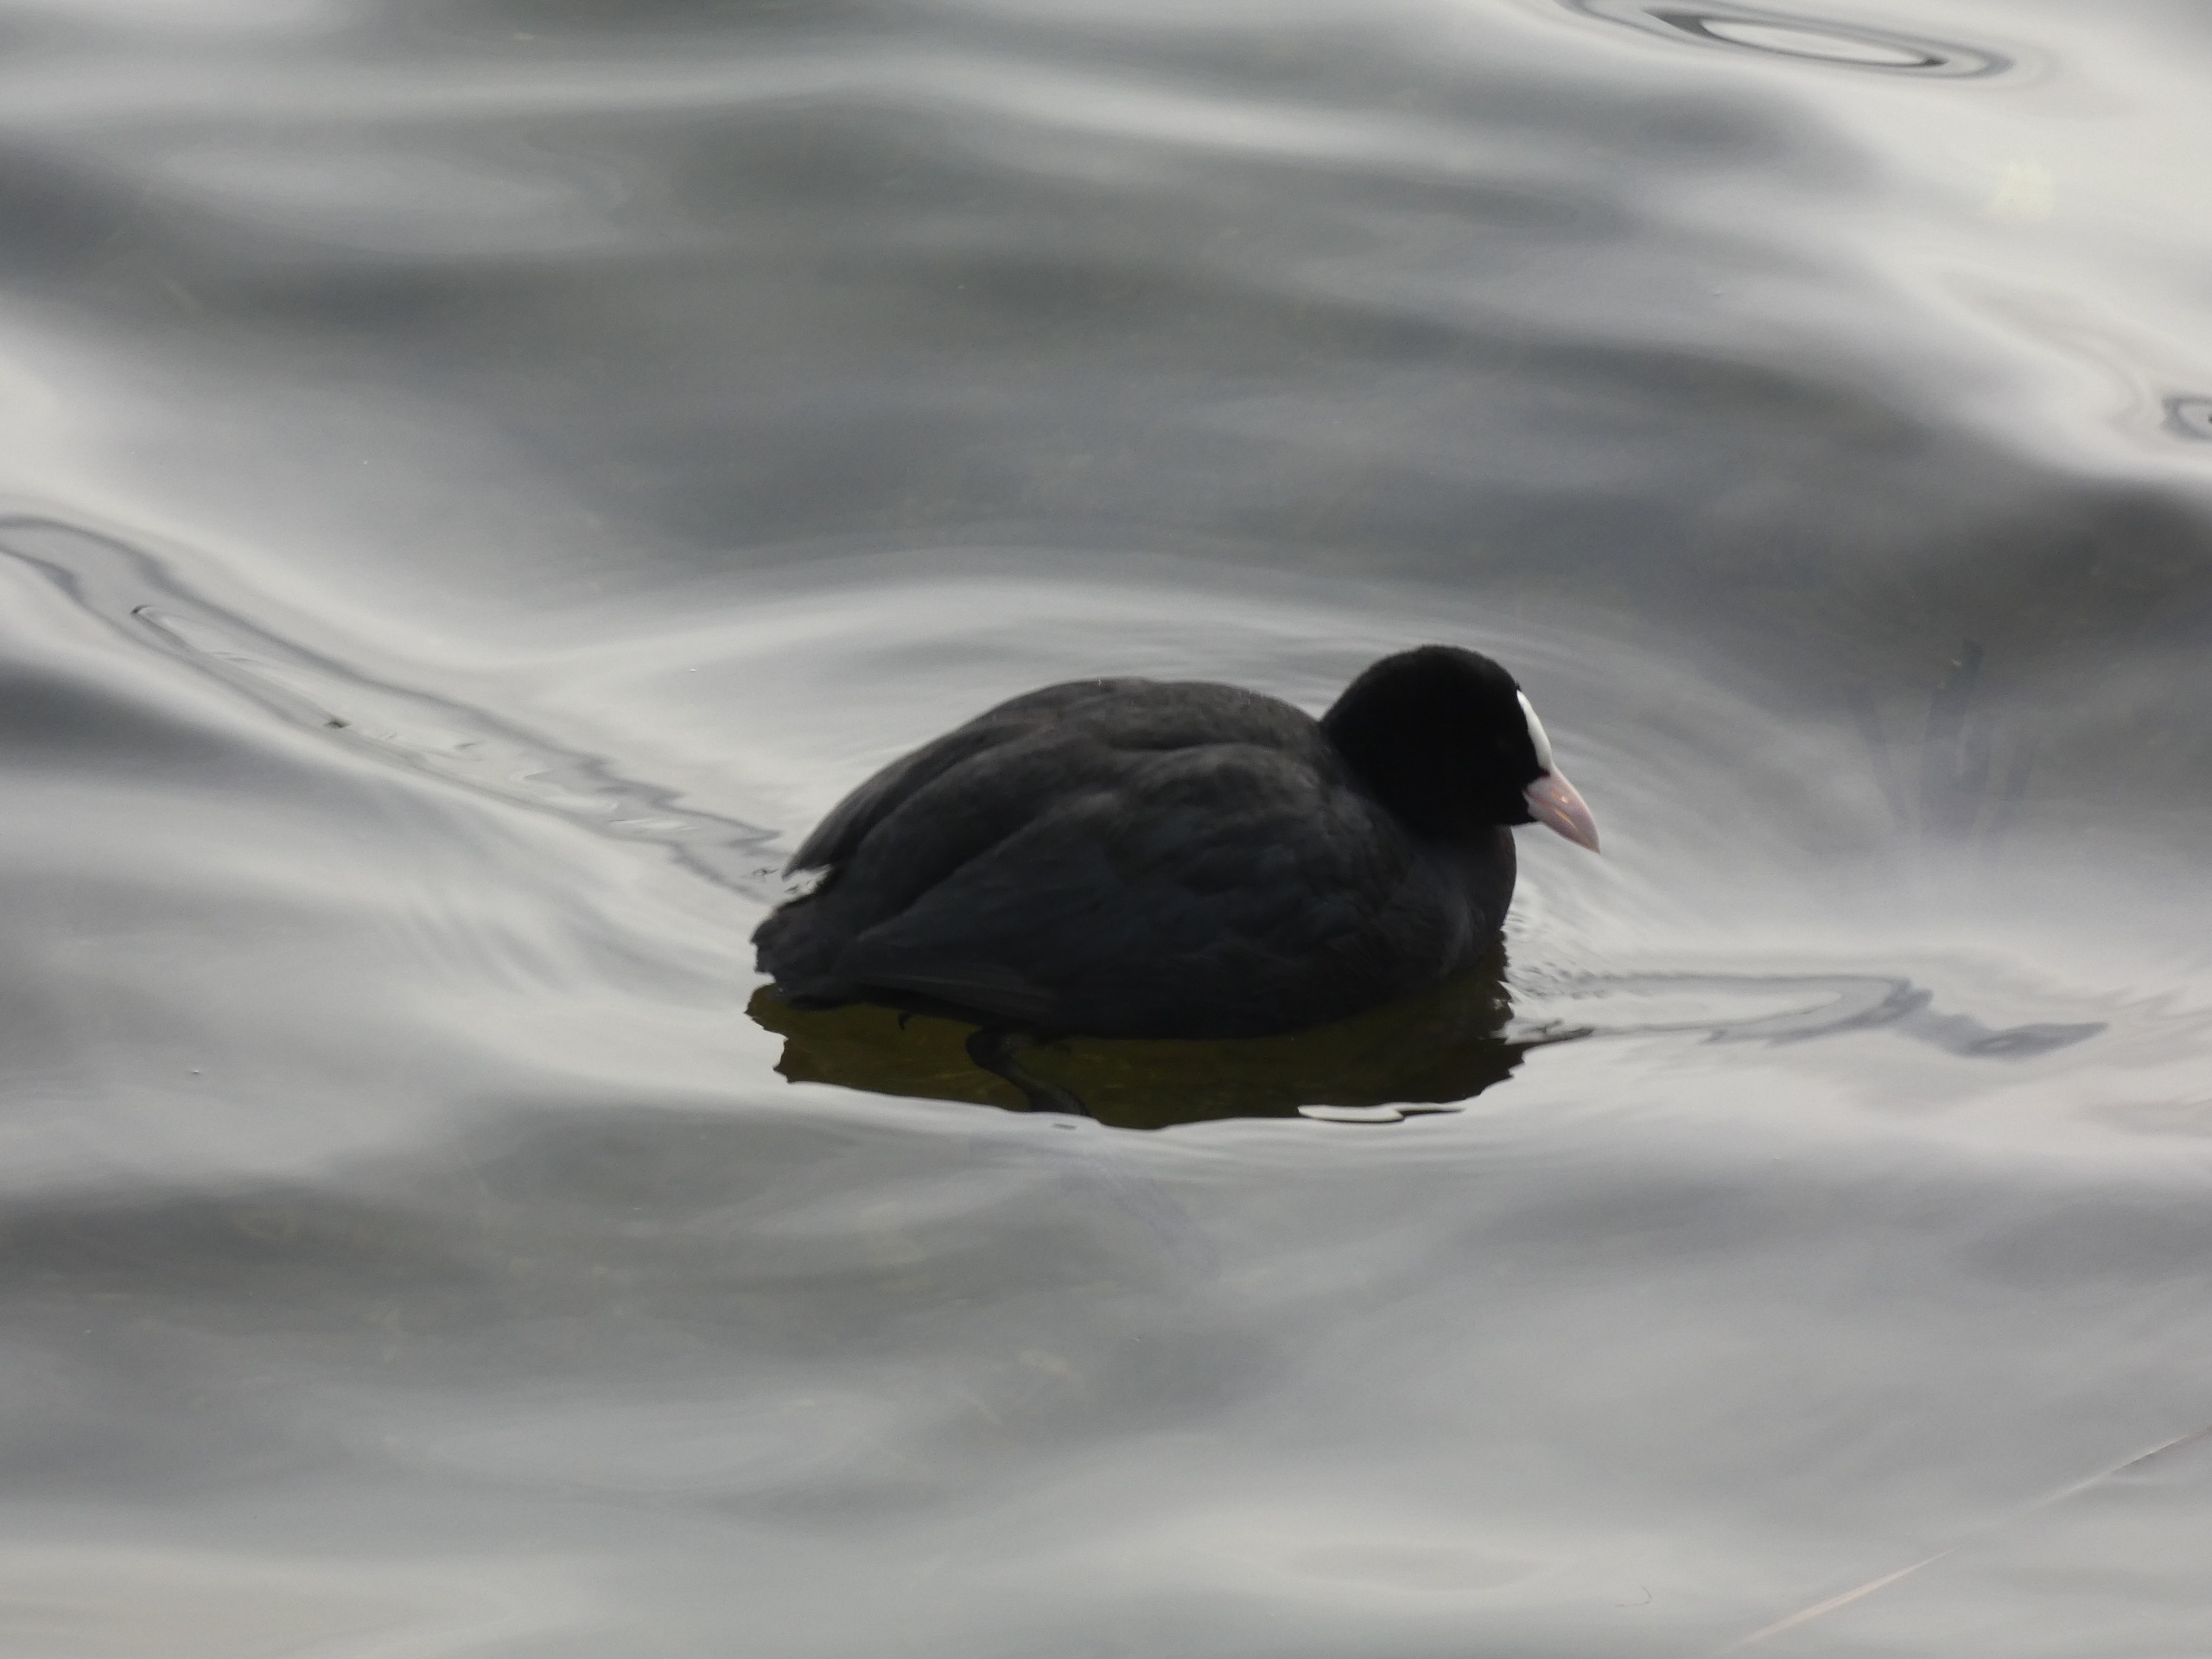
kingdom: Animalia
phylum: Chordata
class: Aves
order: Gruiformes
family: Rallidae
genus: Fulica
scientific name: Fulica atra
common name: Blishøne
